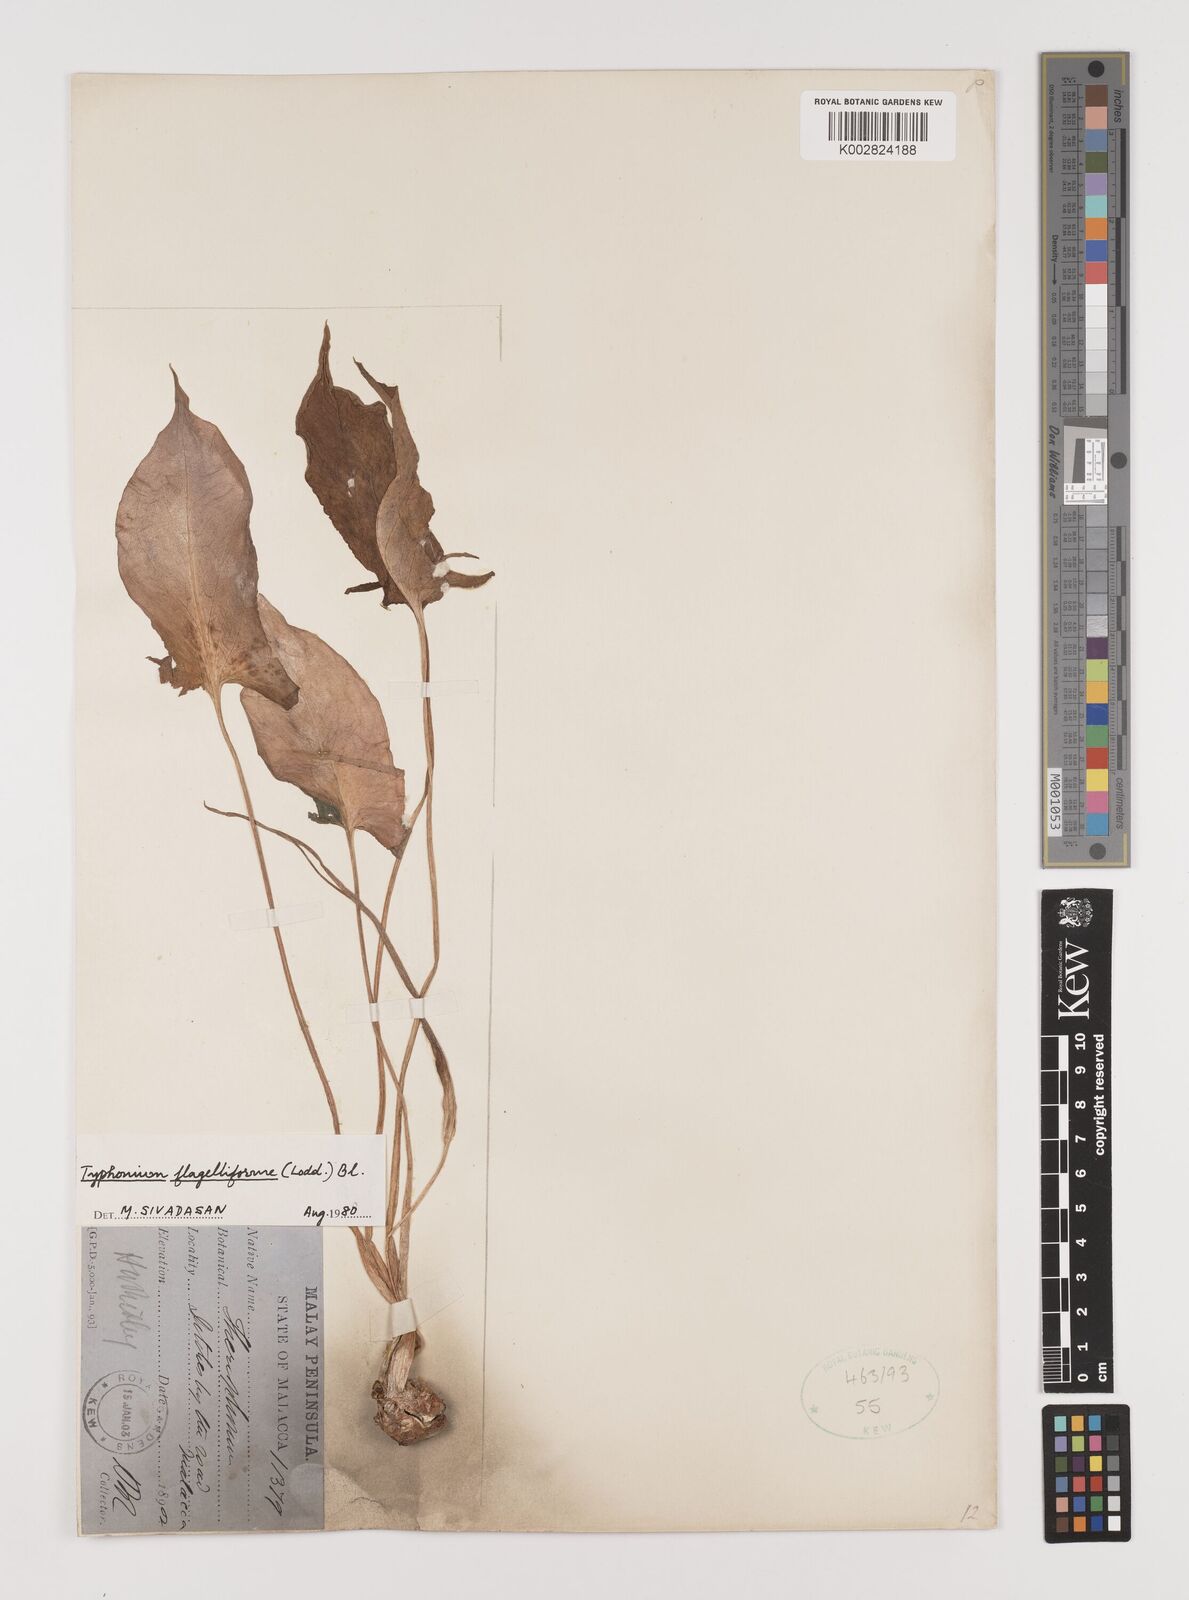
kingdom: Plantae
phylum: Tracheophyta
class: Liliopsida
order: Alismatales
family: Araceae
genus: Typhonium
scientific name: Typhonium flagelliforme
